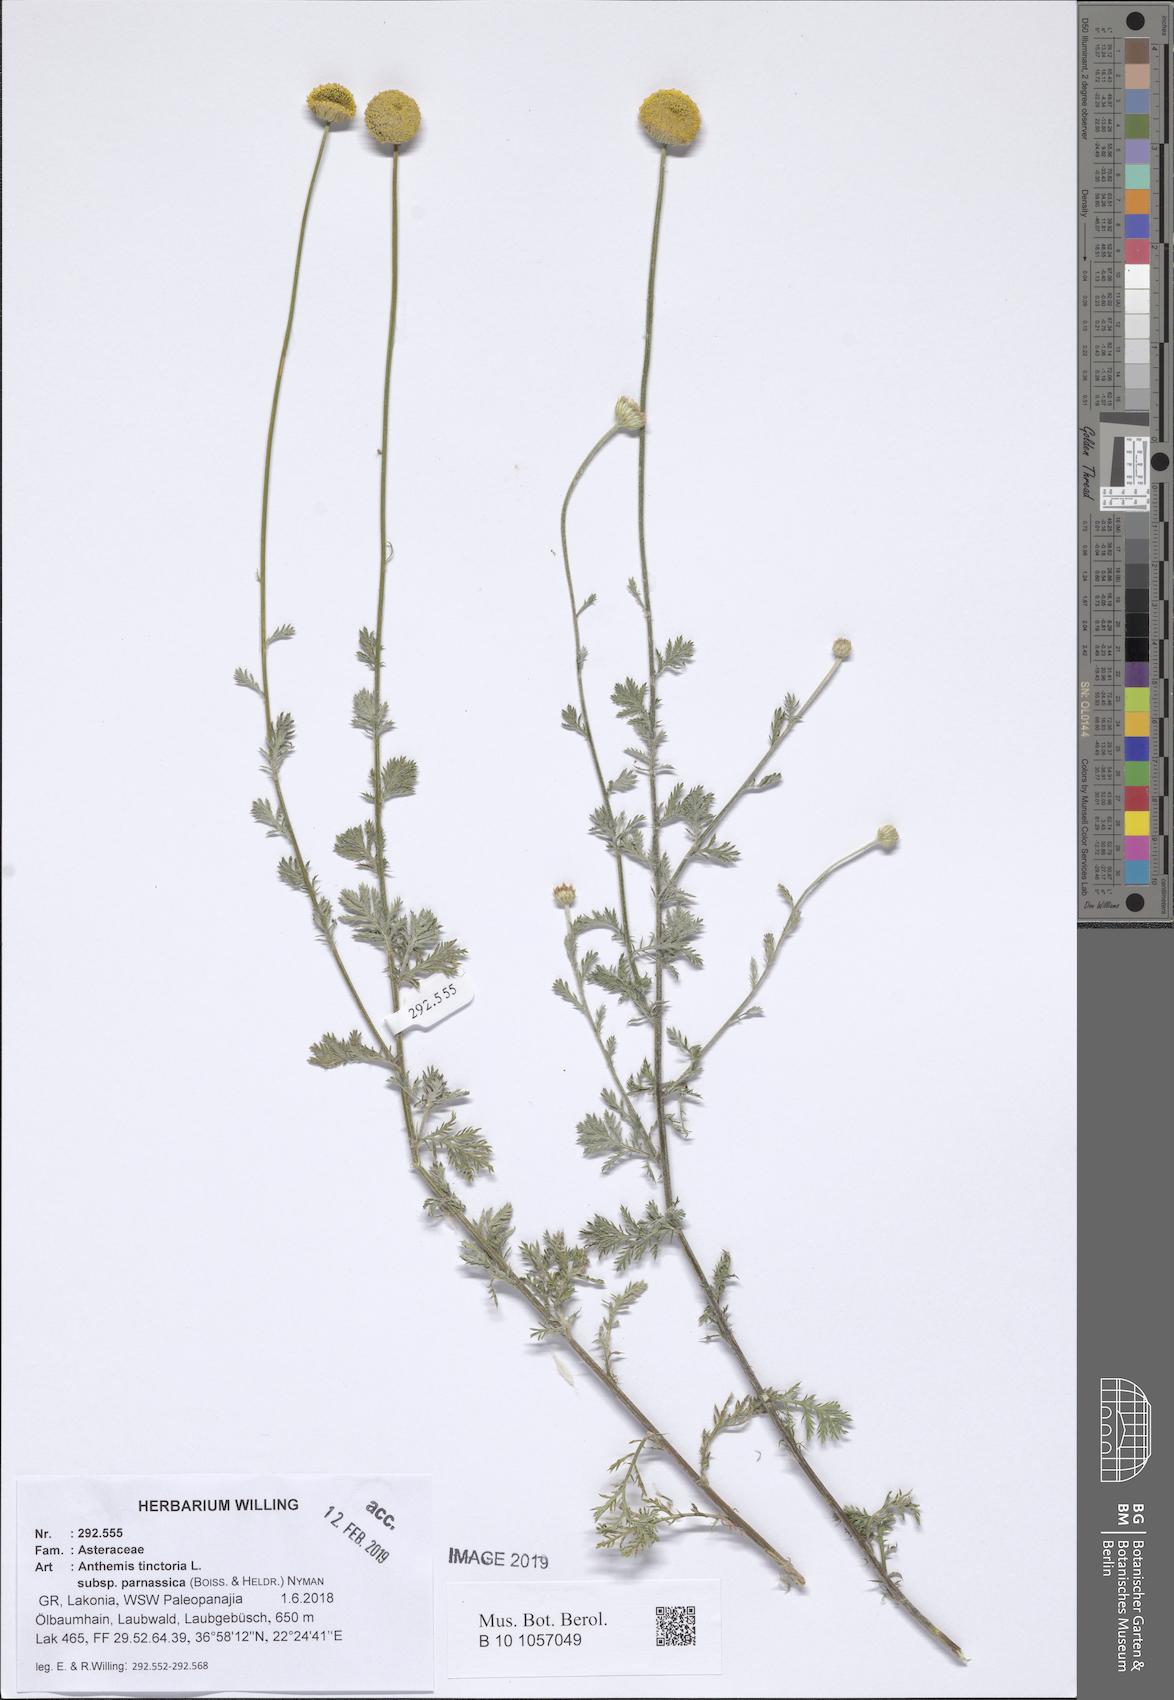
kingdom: Plantae
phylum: Tracheophyta
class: Magnoliopsida
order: Asterales
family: Asteraceae
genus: Cota
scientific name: Cota tinctoria
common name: Golden chamomile
